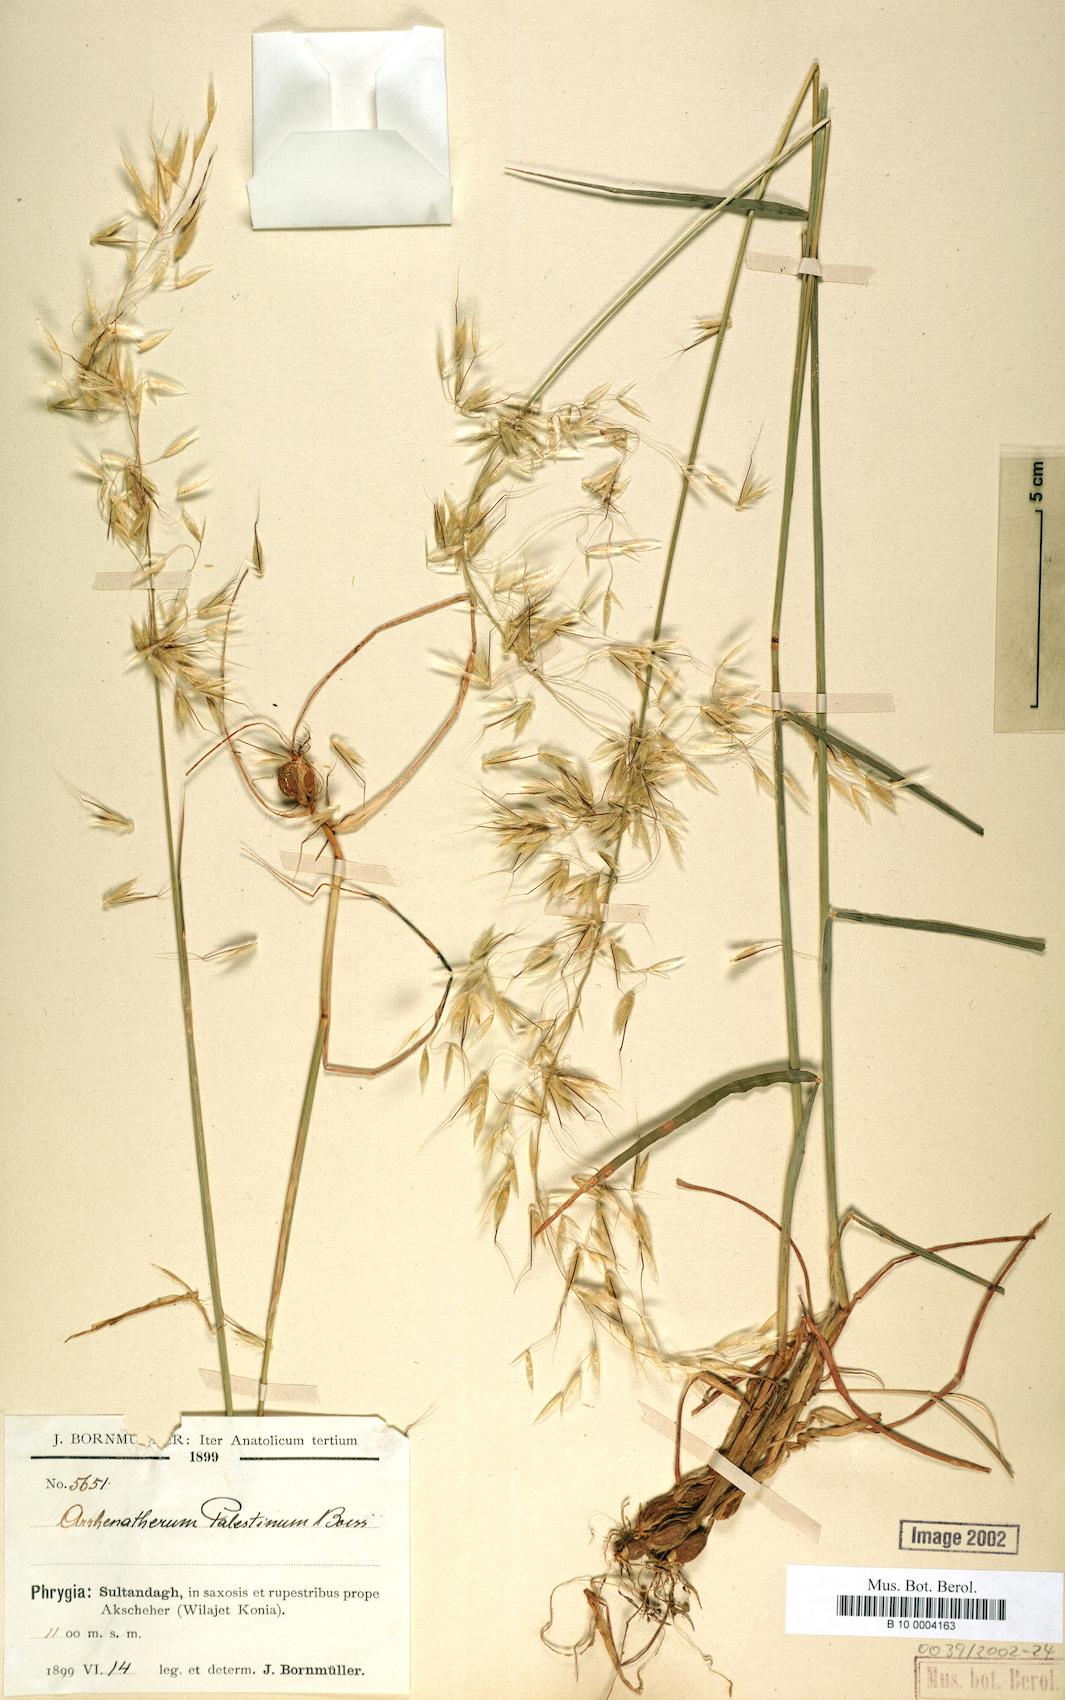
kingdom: Plantae
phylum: Tracheophyta
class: Liliopsida
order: Poales
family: Poaceae
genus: Arrhenatherum
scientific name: Arrhenatherum palaestinum
